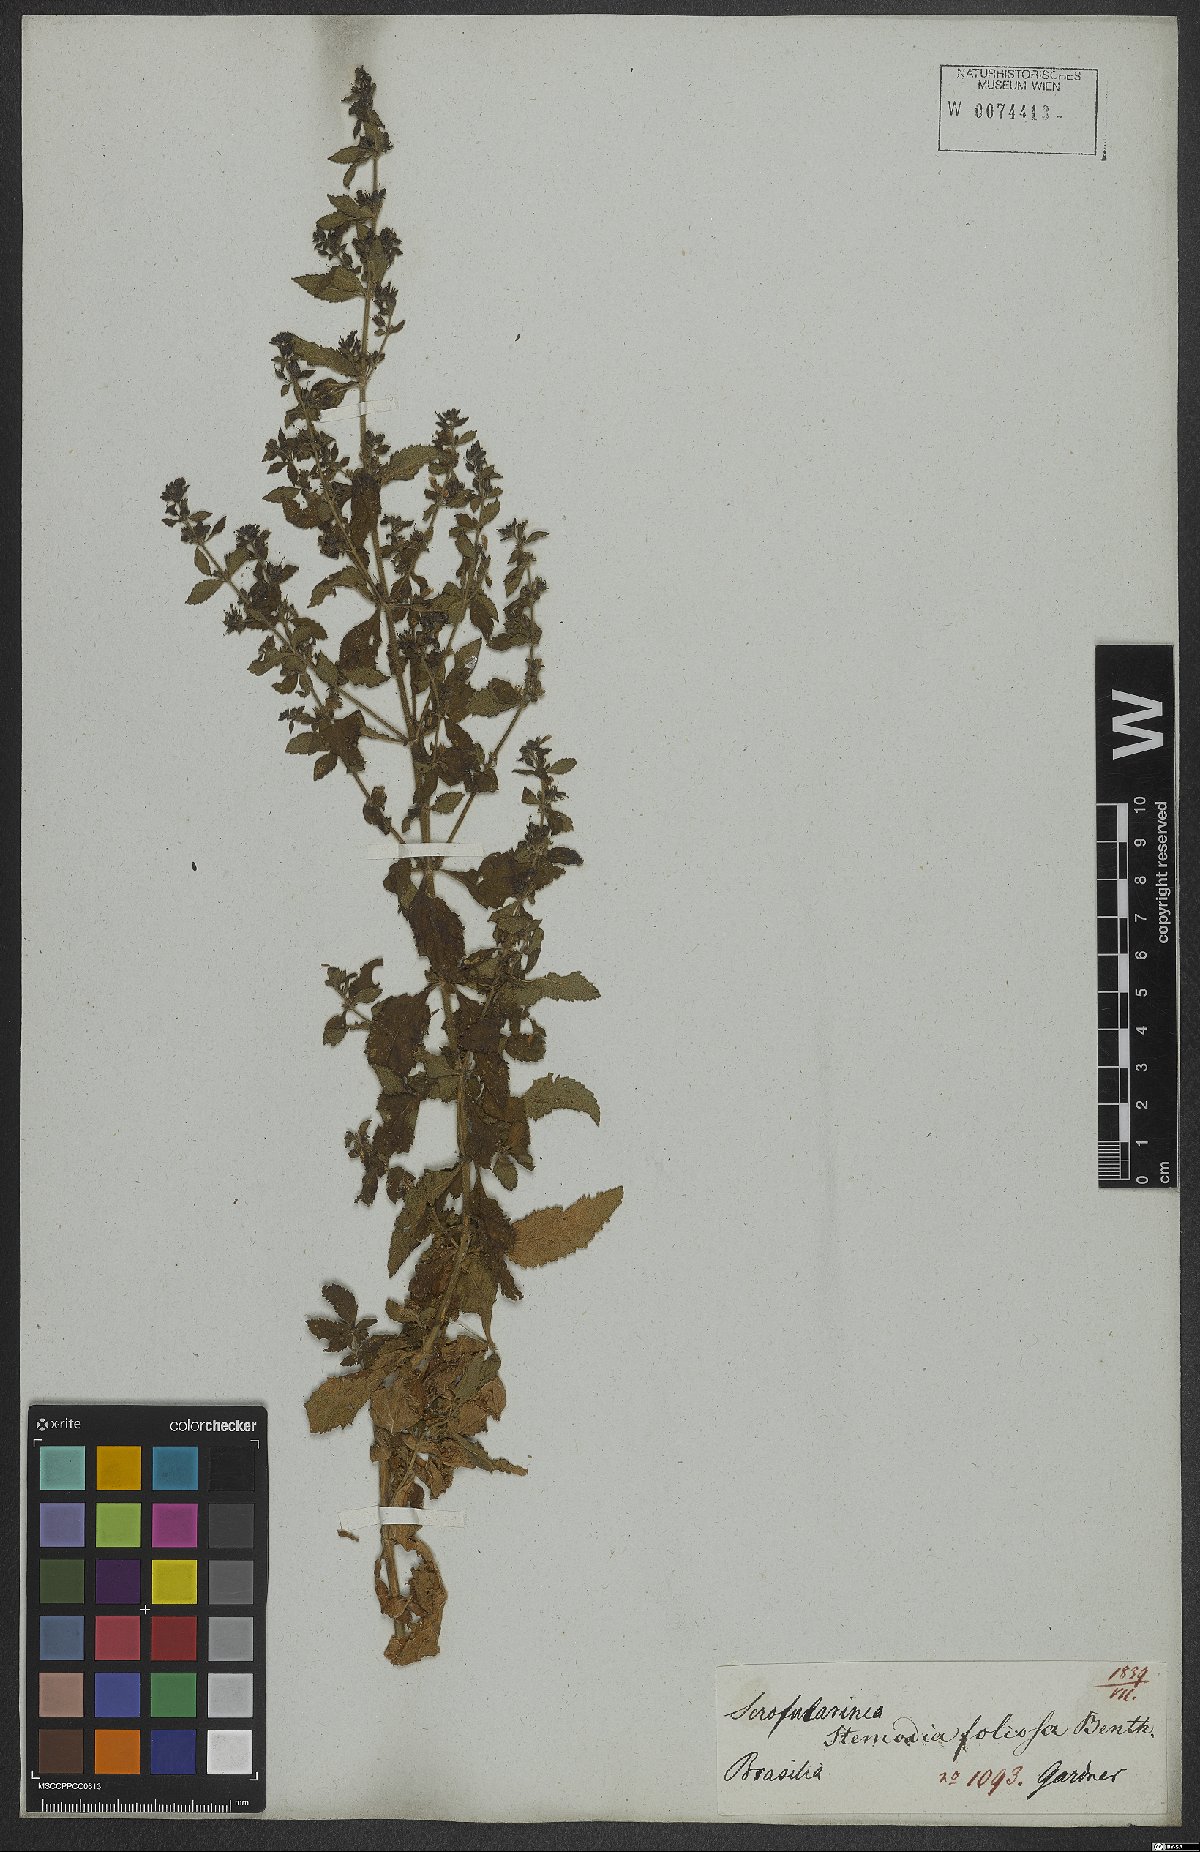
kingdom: Plantae
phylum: Tracheophyta
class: Magnoliopsida
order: Lamiales
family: Plantaginaceae
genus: Stemodia
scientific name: Stemodia foliosa
